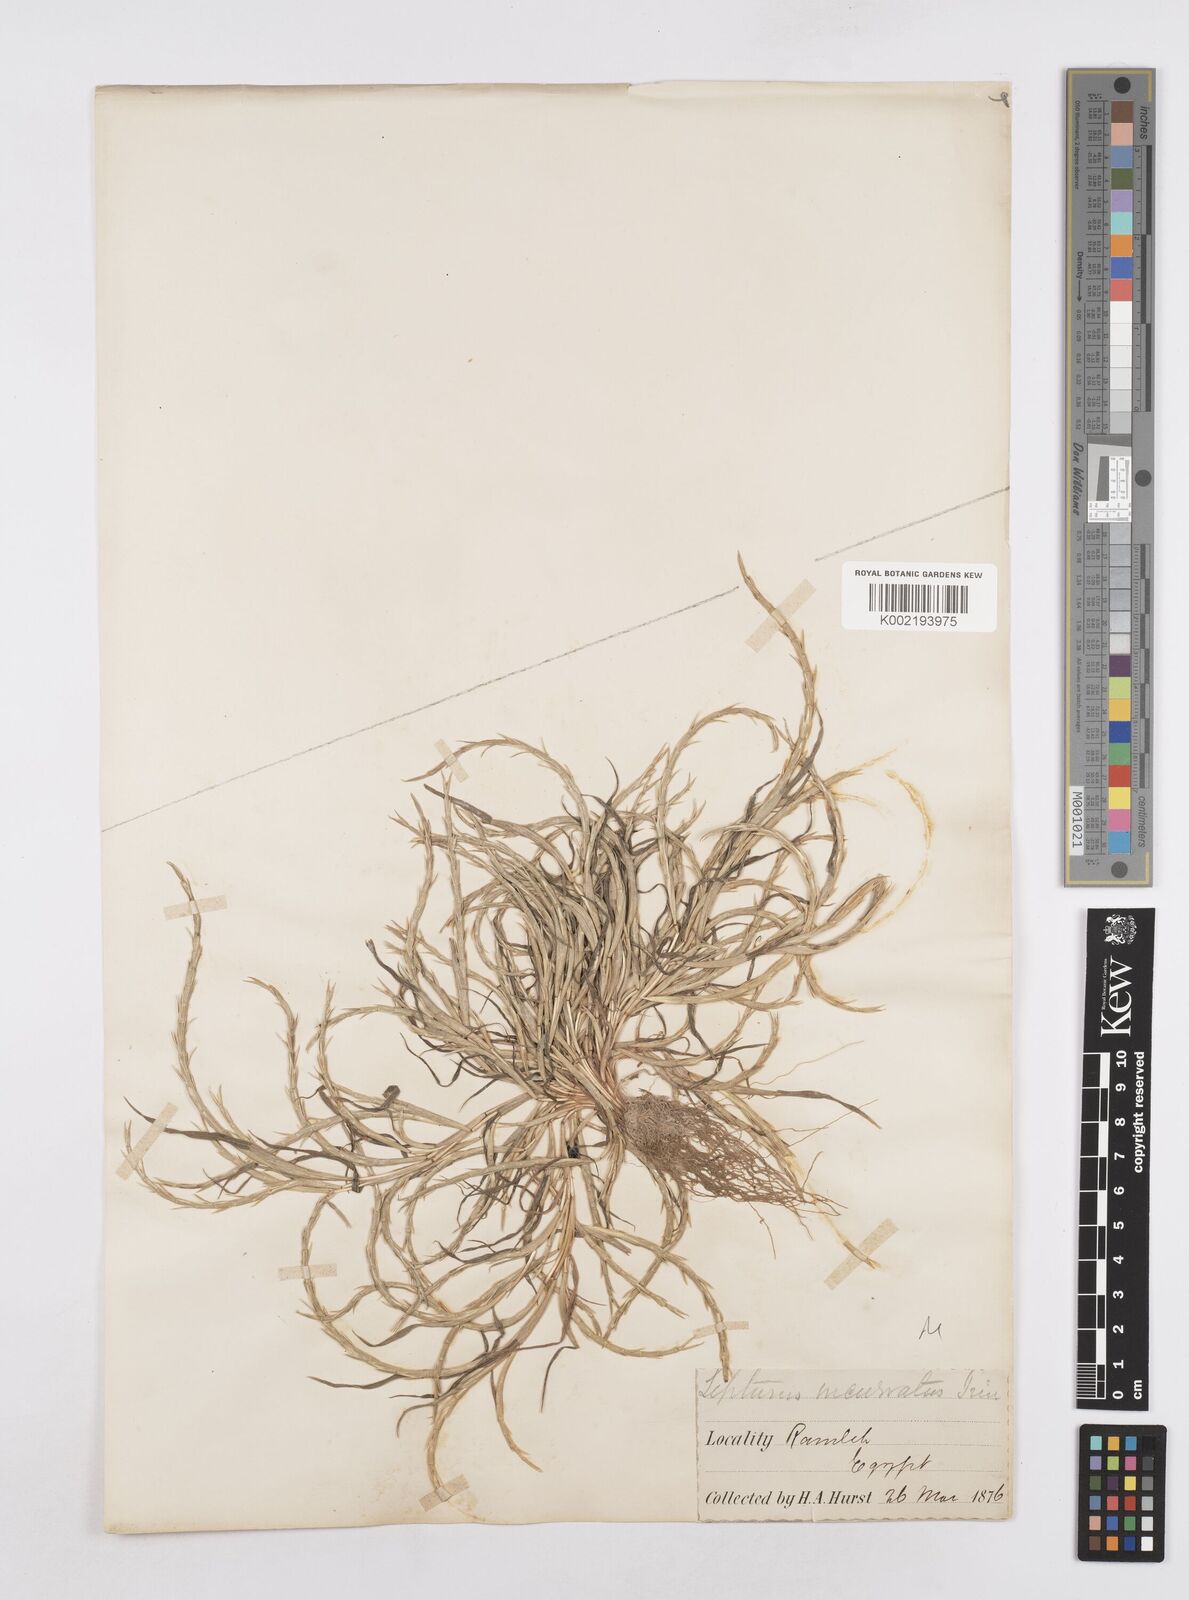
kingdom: Plantae
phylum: Tracheophyta
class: Liliopsida
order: Poales
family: Poaceae
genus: Parapholis
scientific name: Parapholis incurva
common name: Curved sicklegrass
